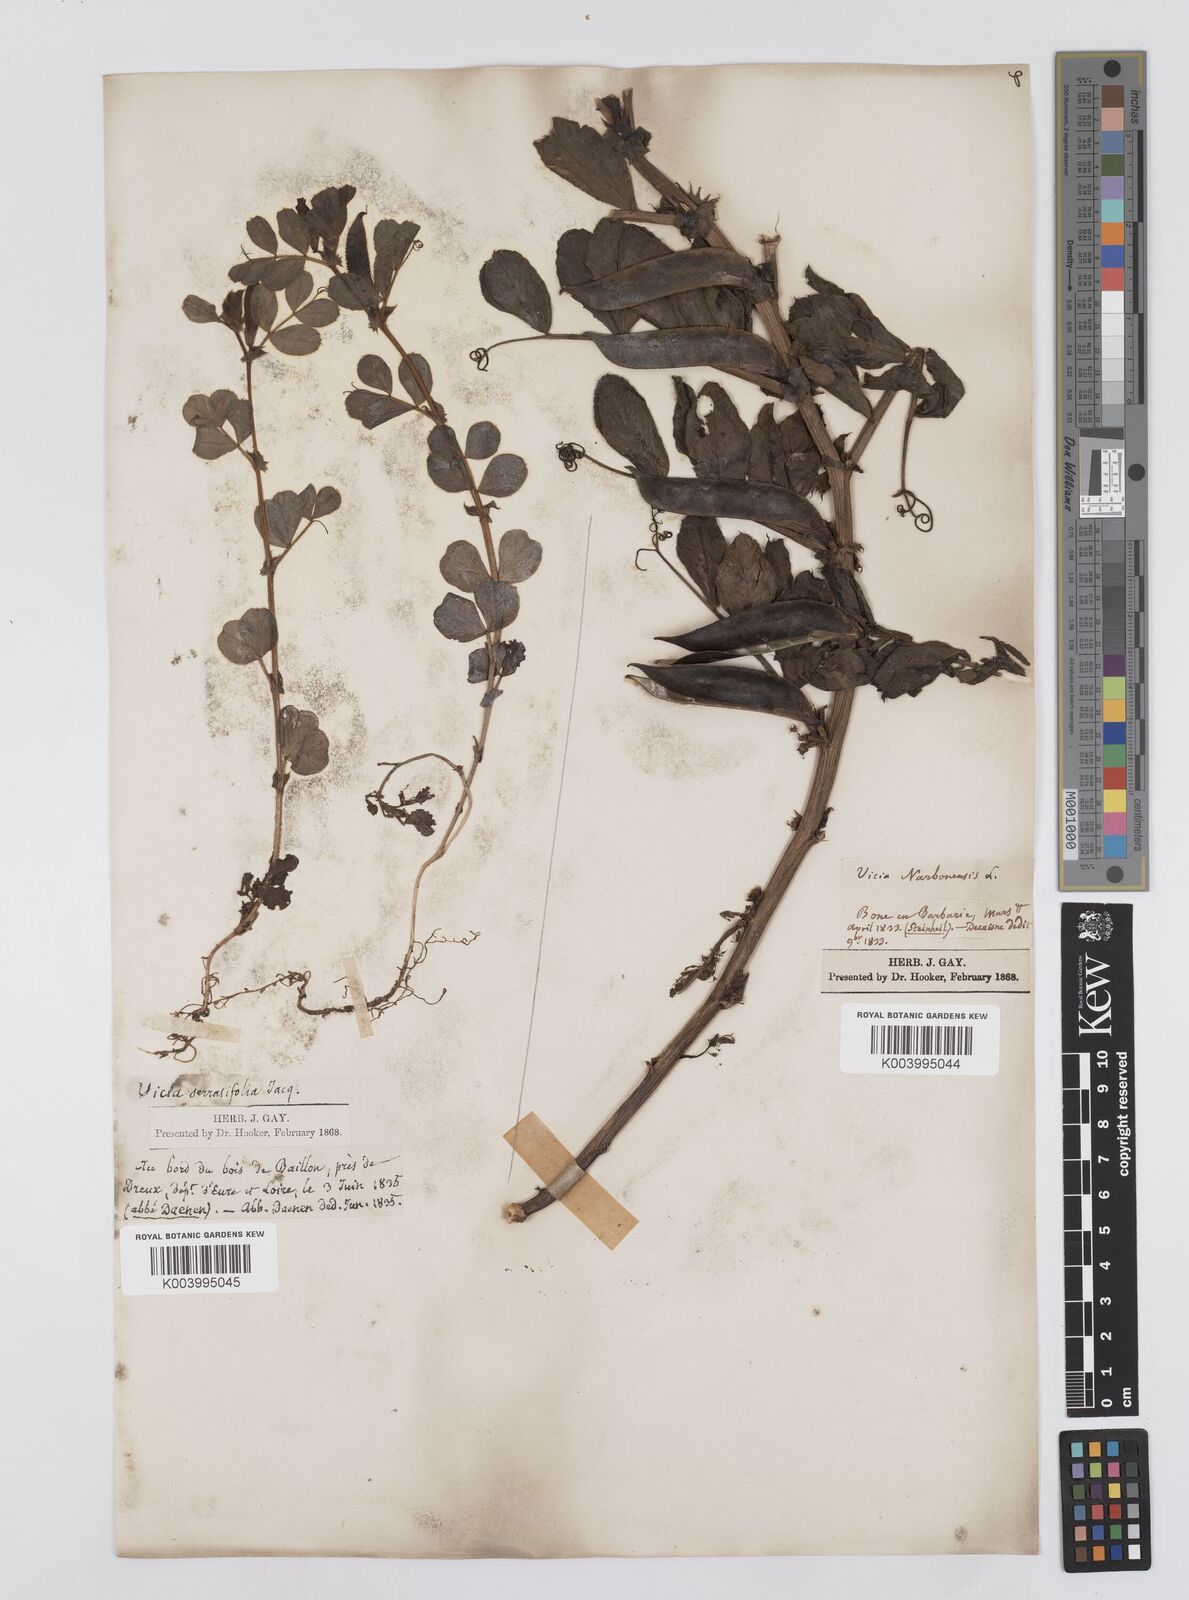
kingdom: Plantae
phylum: Tracheophyta
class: Magnoliopsida
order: Fabales
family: Fabaceae
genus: Vicia
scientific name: Vicia narbonensis
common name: Narbonne vetch
